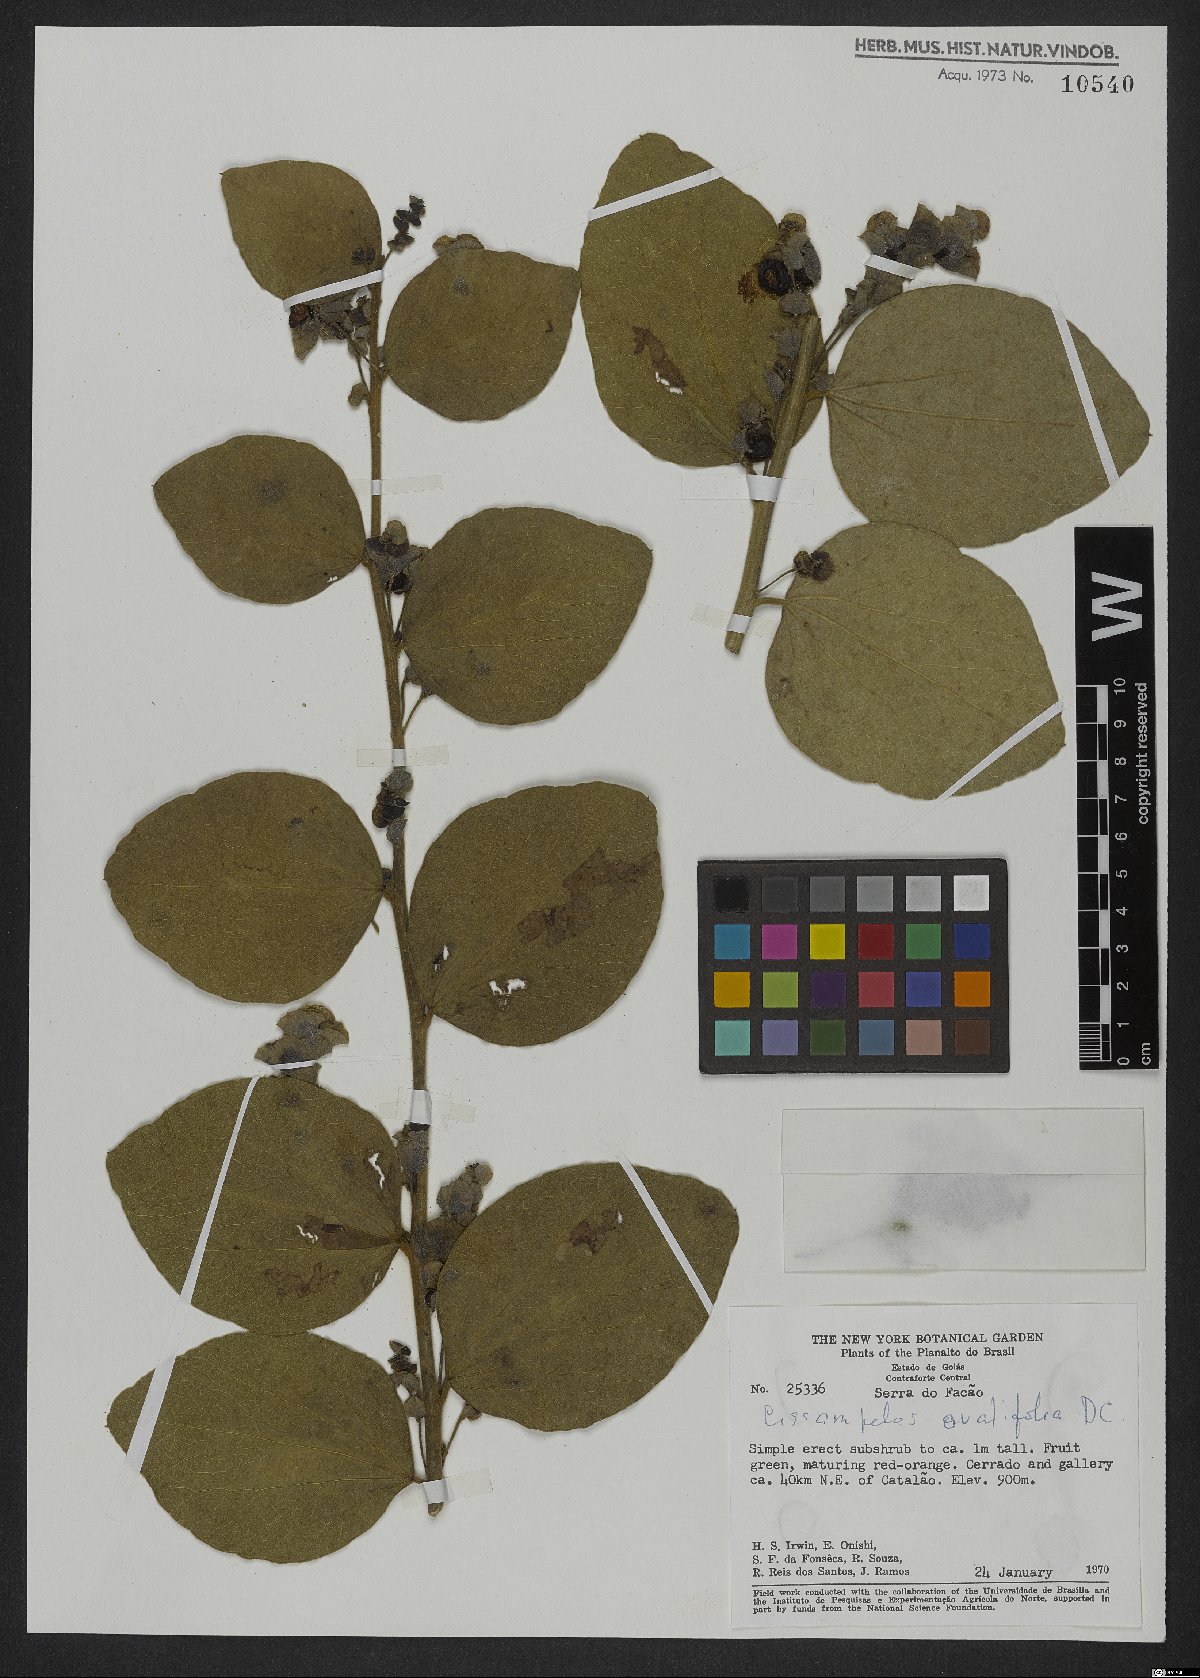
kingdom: Plantae
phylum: Tracheophyta
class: Magnoliopsida
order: Ranunculales
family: Menispermaceae
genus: Cissampelos
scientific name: Cissampelos ovalifolia
